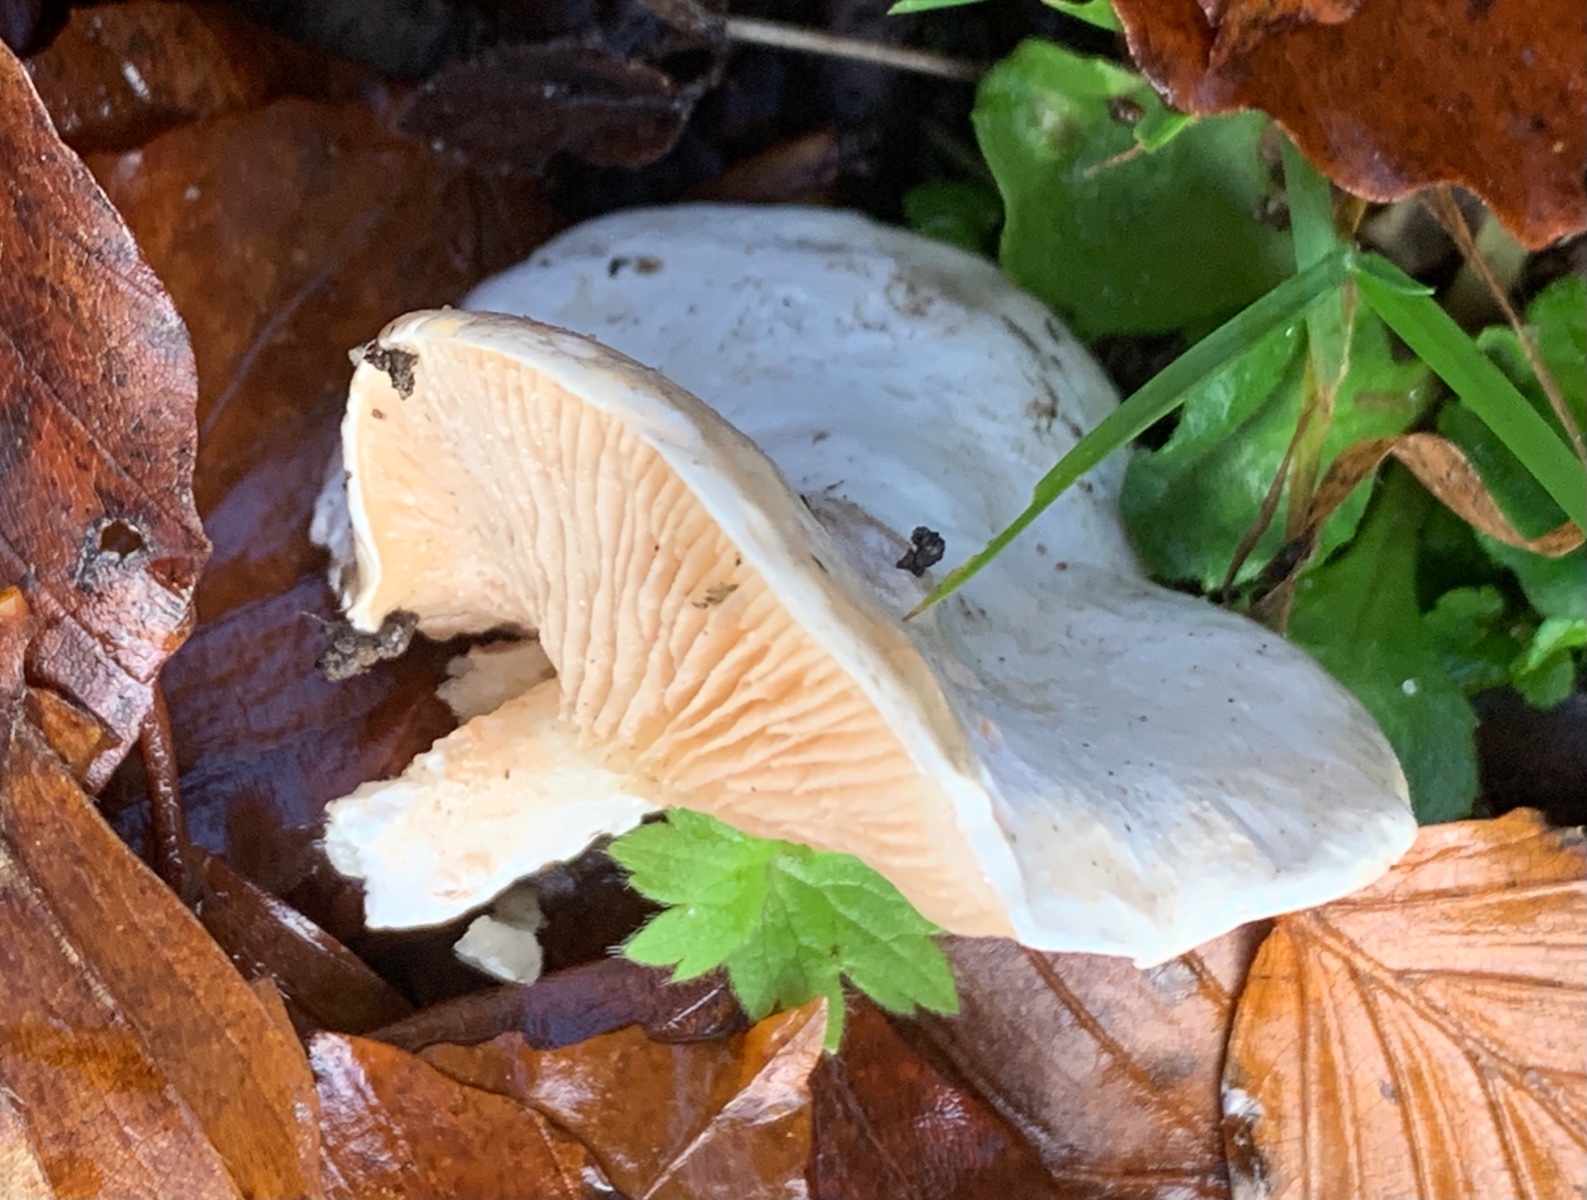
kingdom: Fungi
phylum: Basidiomycota
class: Agaricomycetes
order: Agaricales
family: Entolomataceae
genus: Clitopilus
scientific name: Clitopilus prunulus
